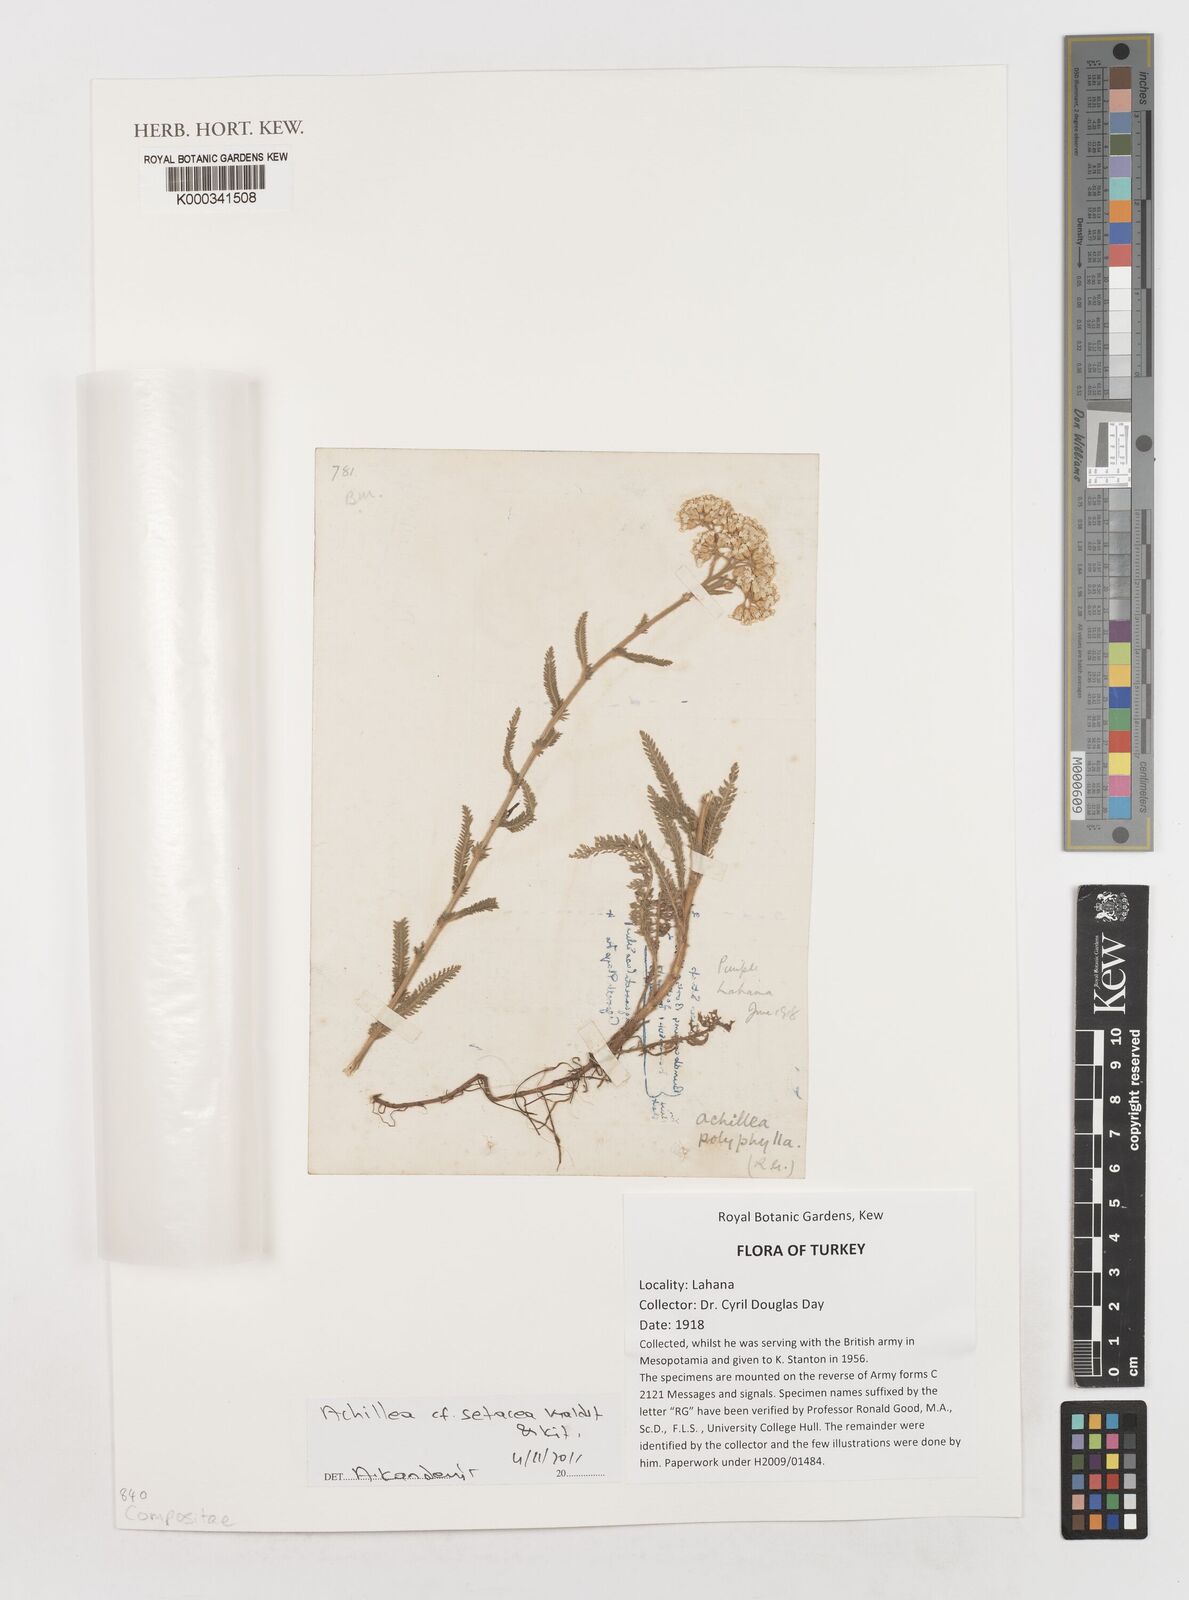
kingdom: Plantae
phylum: Tracheophyta
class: Magnoliopsida
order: Asterales
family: Asteraceae
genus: Achillea
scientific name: Achillea setacea
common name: Bristly yarrow
